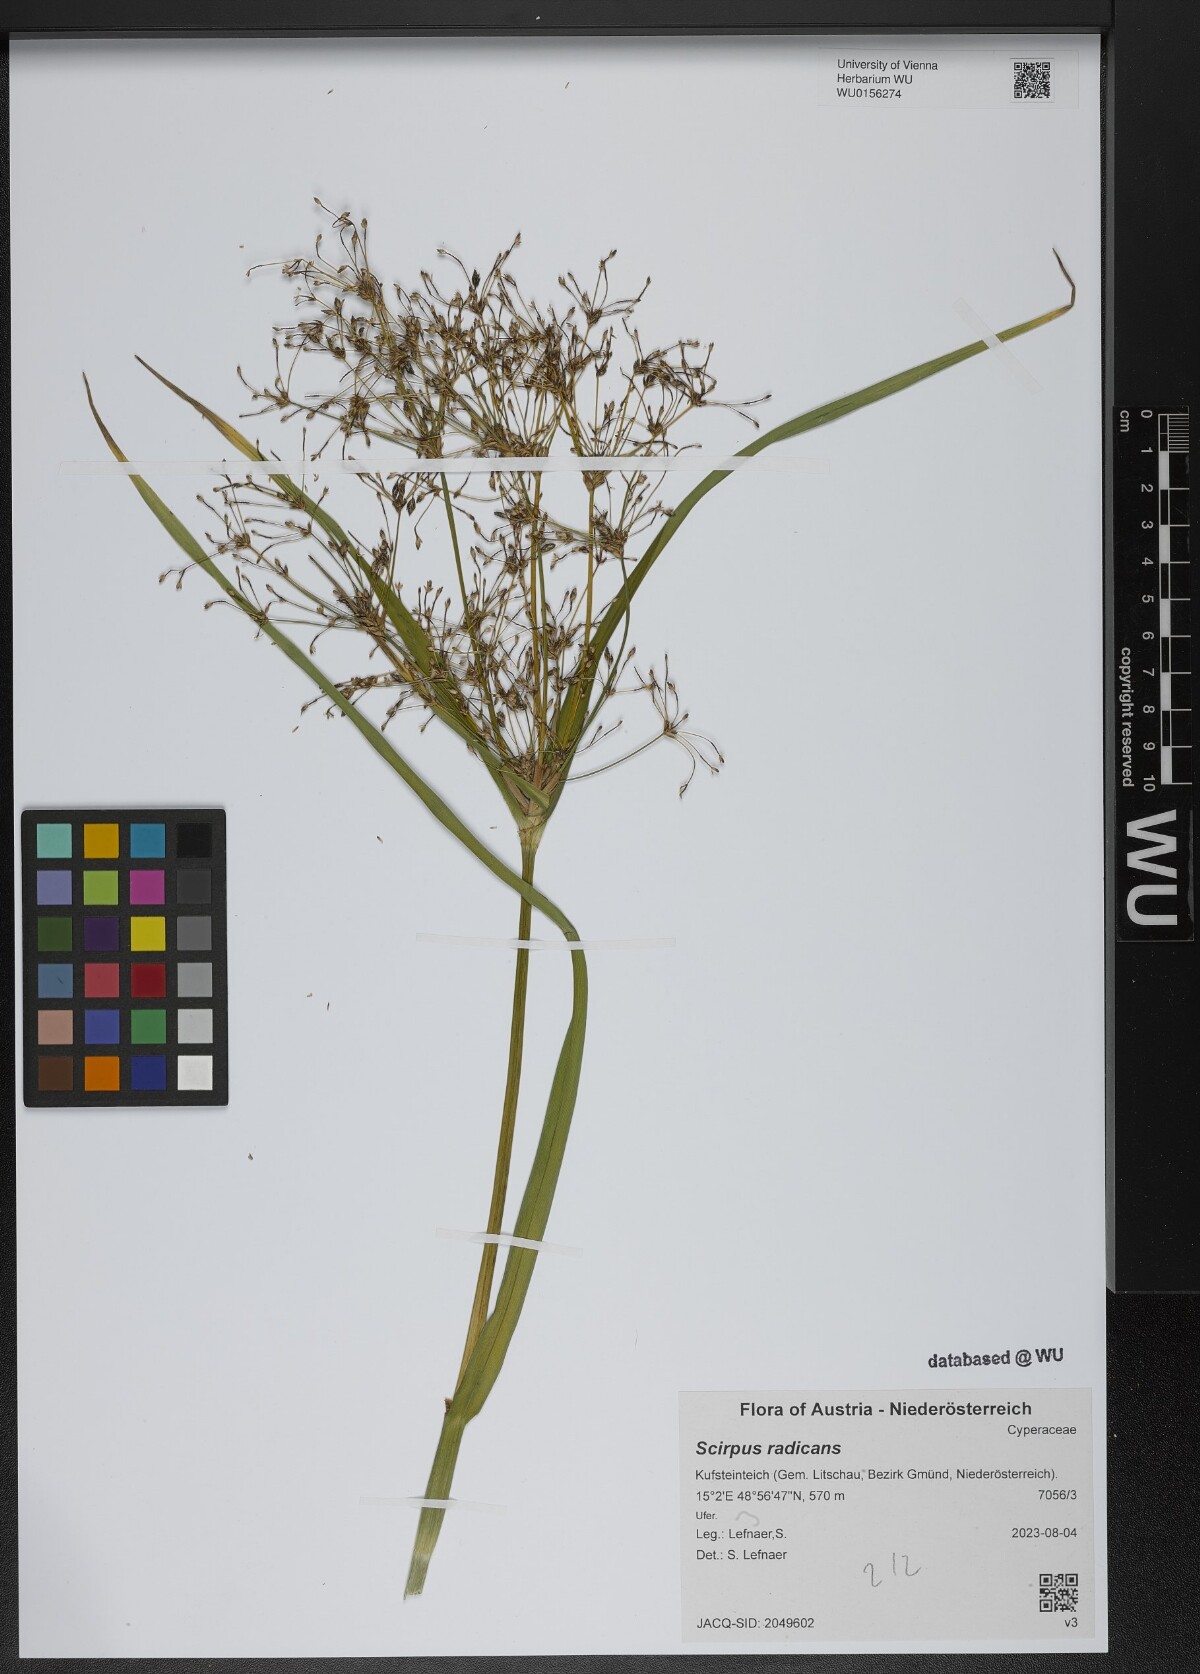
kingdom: Plantae
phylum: Tracheophyta
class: Liliopsida
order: Poales
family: Cyperaceae
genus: Scirpus
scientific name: Scirpus radicans
